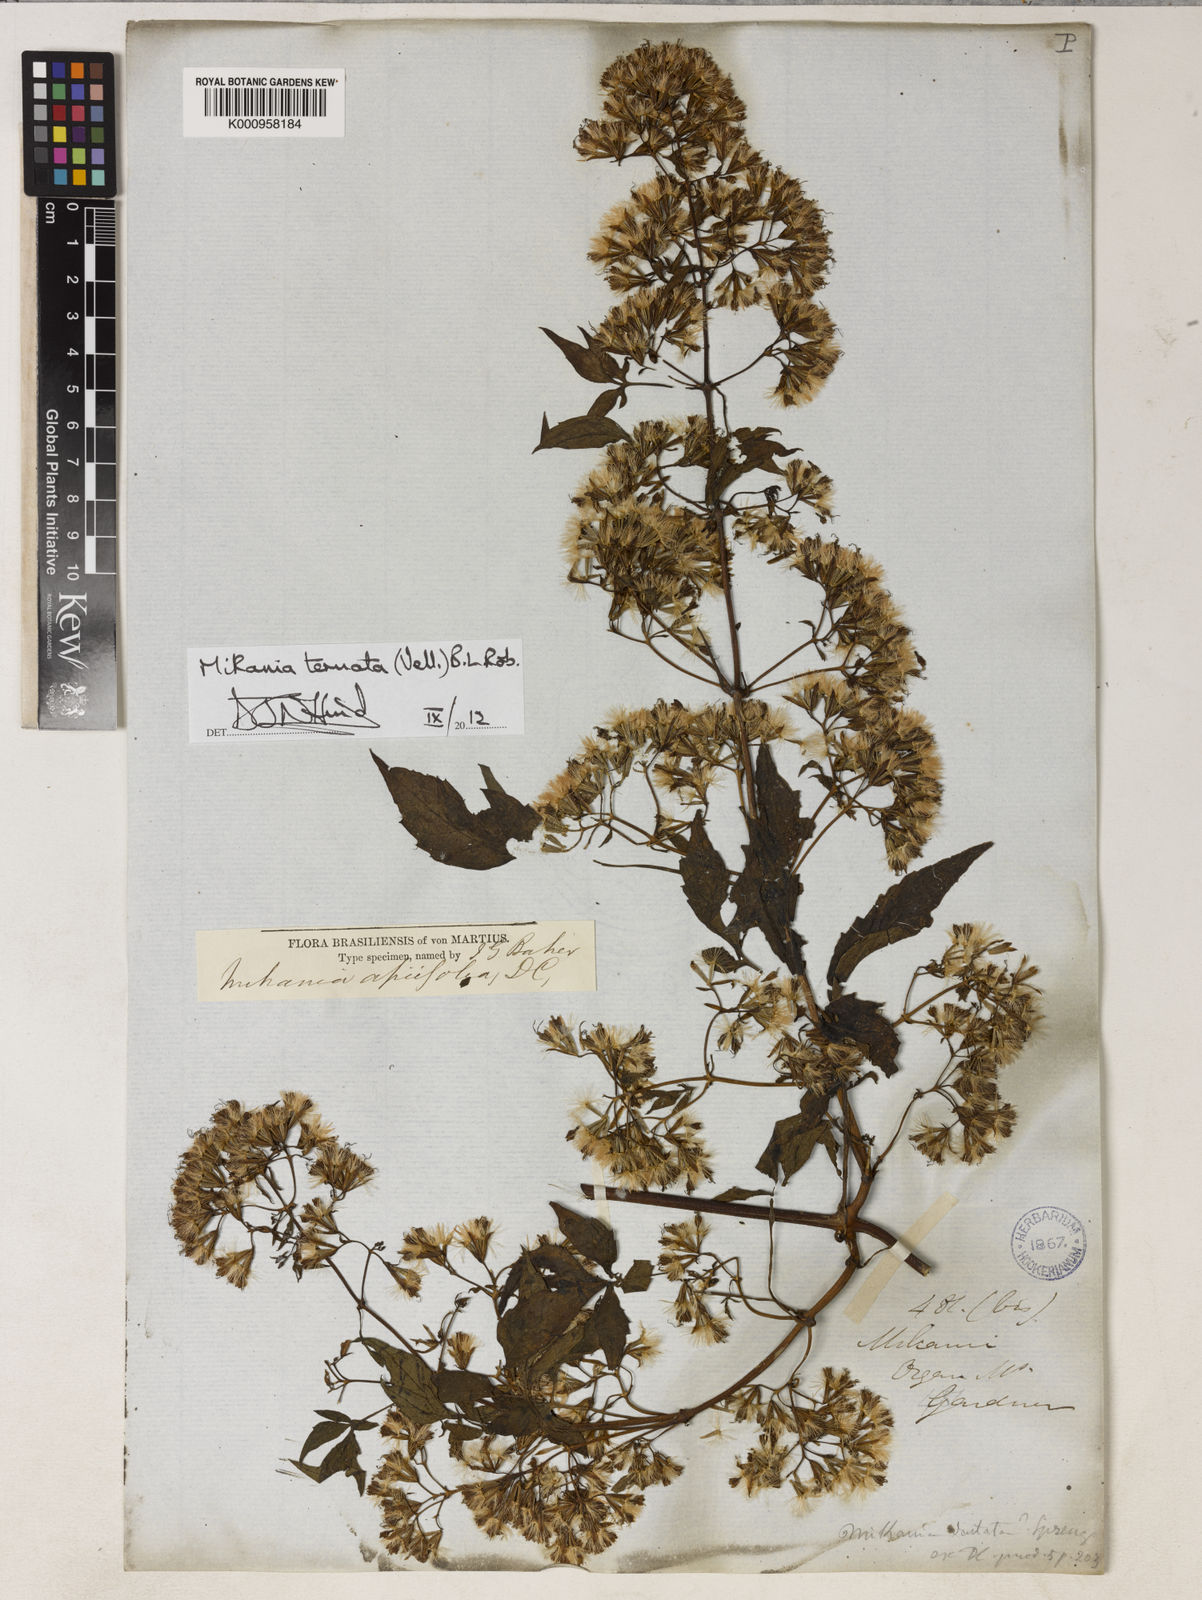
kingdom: Plantae
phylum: Tracheophyta
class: Magnoliopsida
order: Asterales
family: Asteraceae
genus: Mikania
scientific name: Mikania ternata
